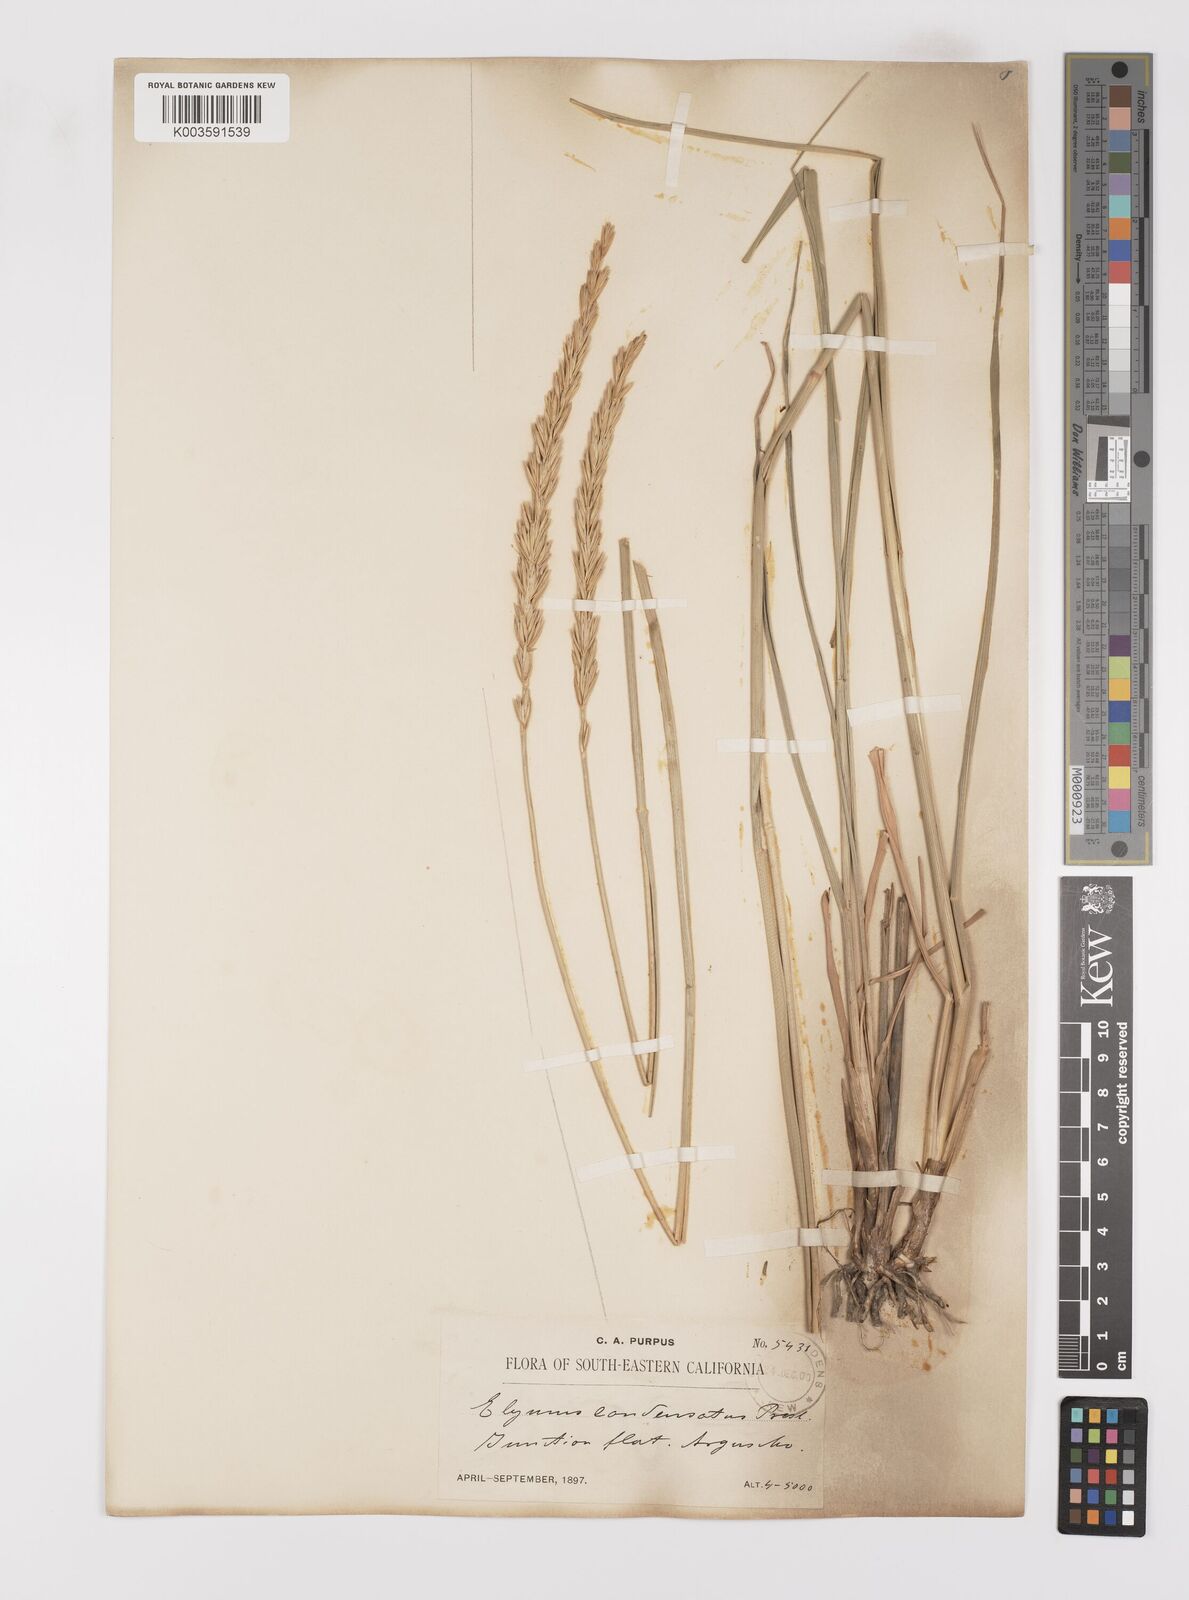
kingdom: Plantae
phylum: Tracheophyta
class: Liliopsida
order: Poales
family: Poaceae
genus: Leymus
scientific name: Leymus condensatus
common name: Giant wild rye
